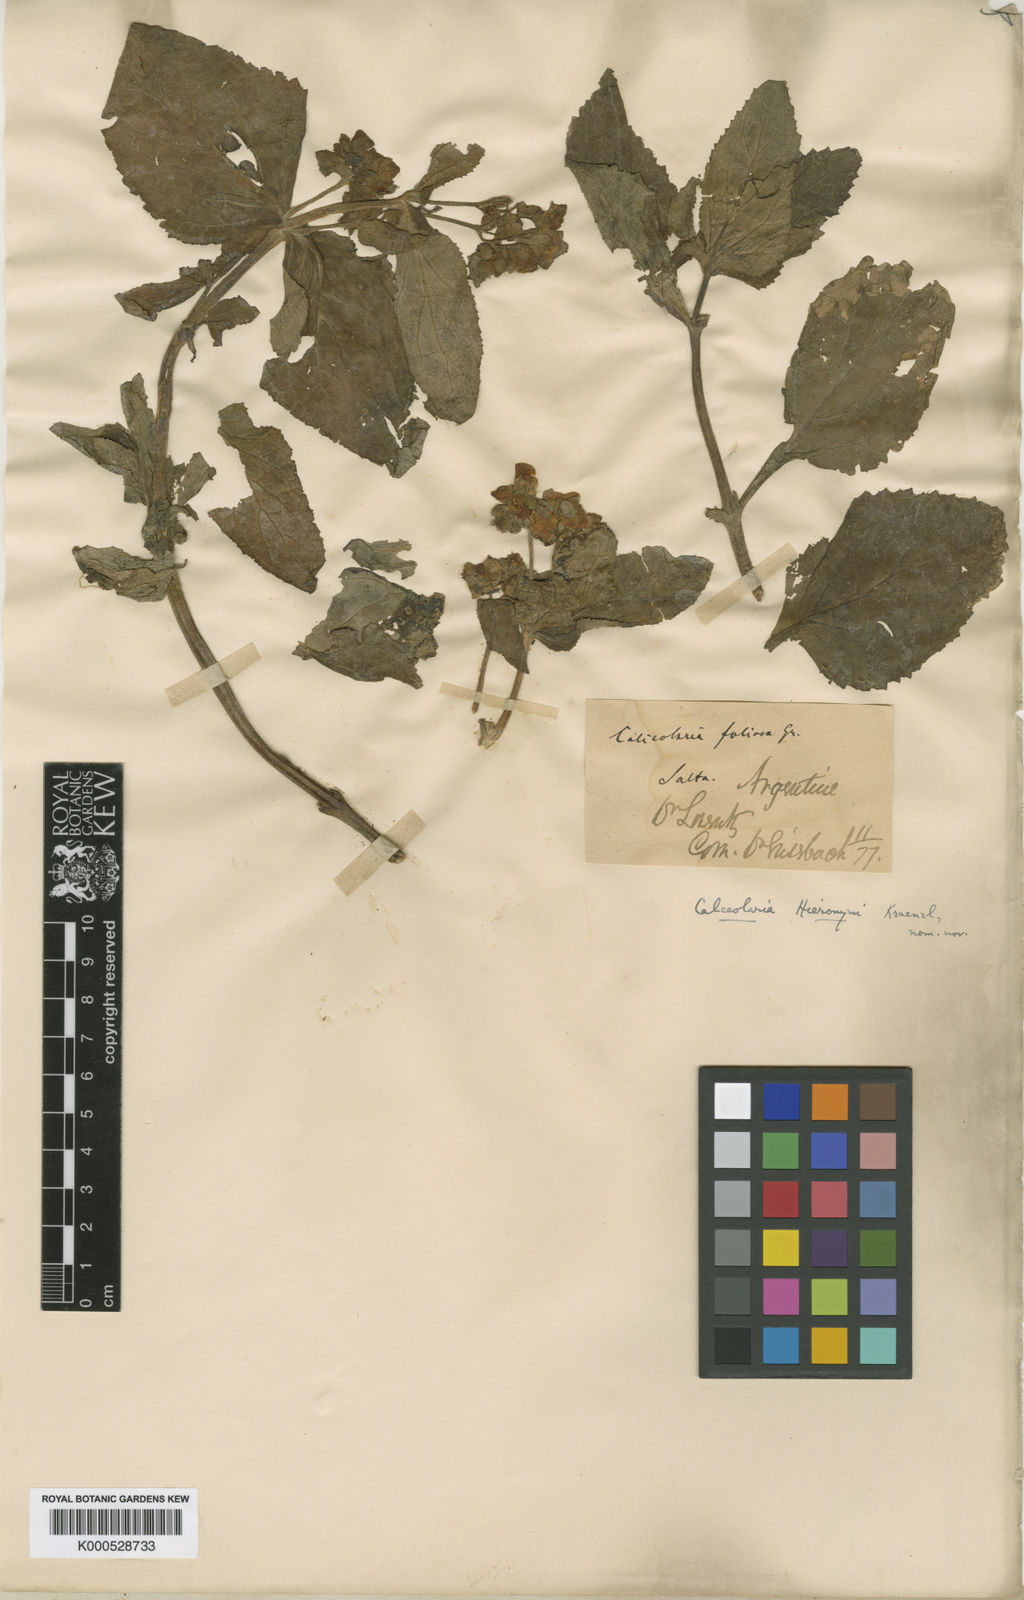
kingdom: Plantae
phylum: Tracheophyta
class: Magnoliopsida
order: Lamiales
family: Calceolariaceae
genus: Calceolaria
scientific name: Calceolaria plectranthifolia
